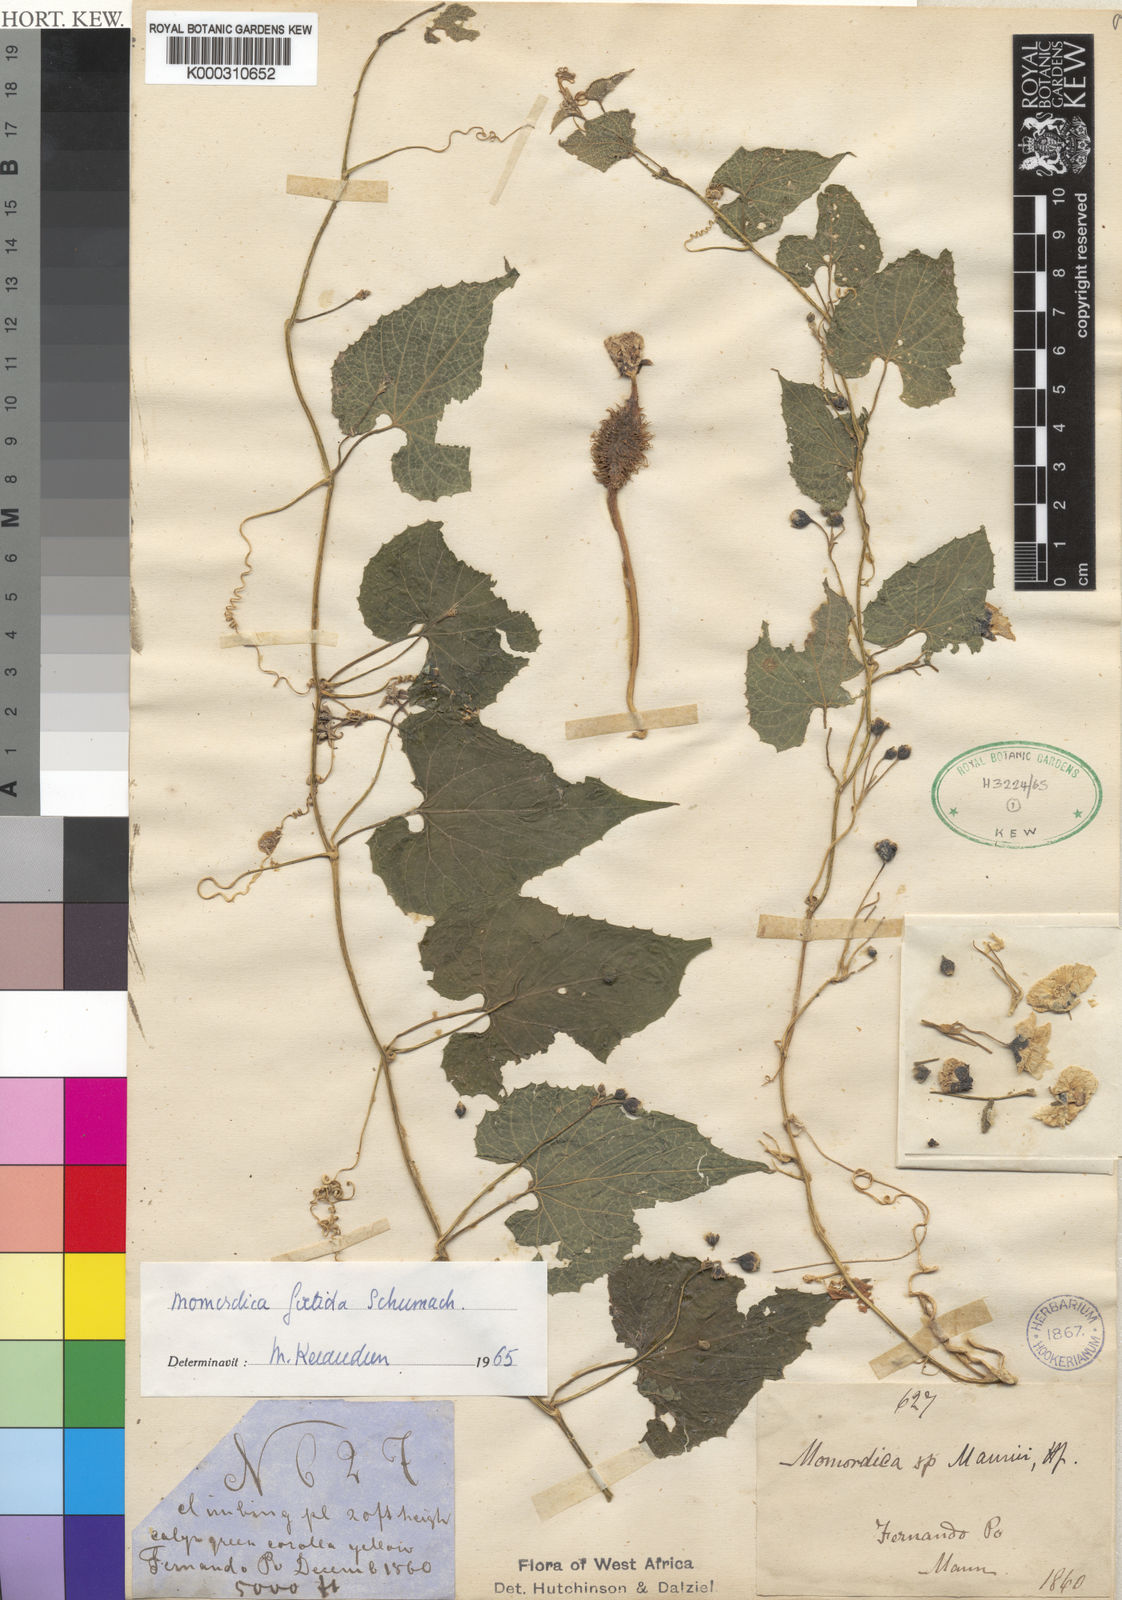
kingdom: Plantae
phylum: Tracheophyta
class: Magnoliopsida
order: Cucurbitales
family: Cucurbitaceae
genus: Momordica
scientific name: Momordica foetida
